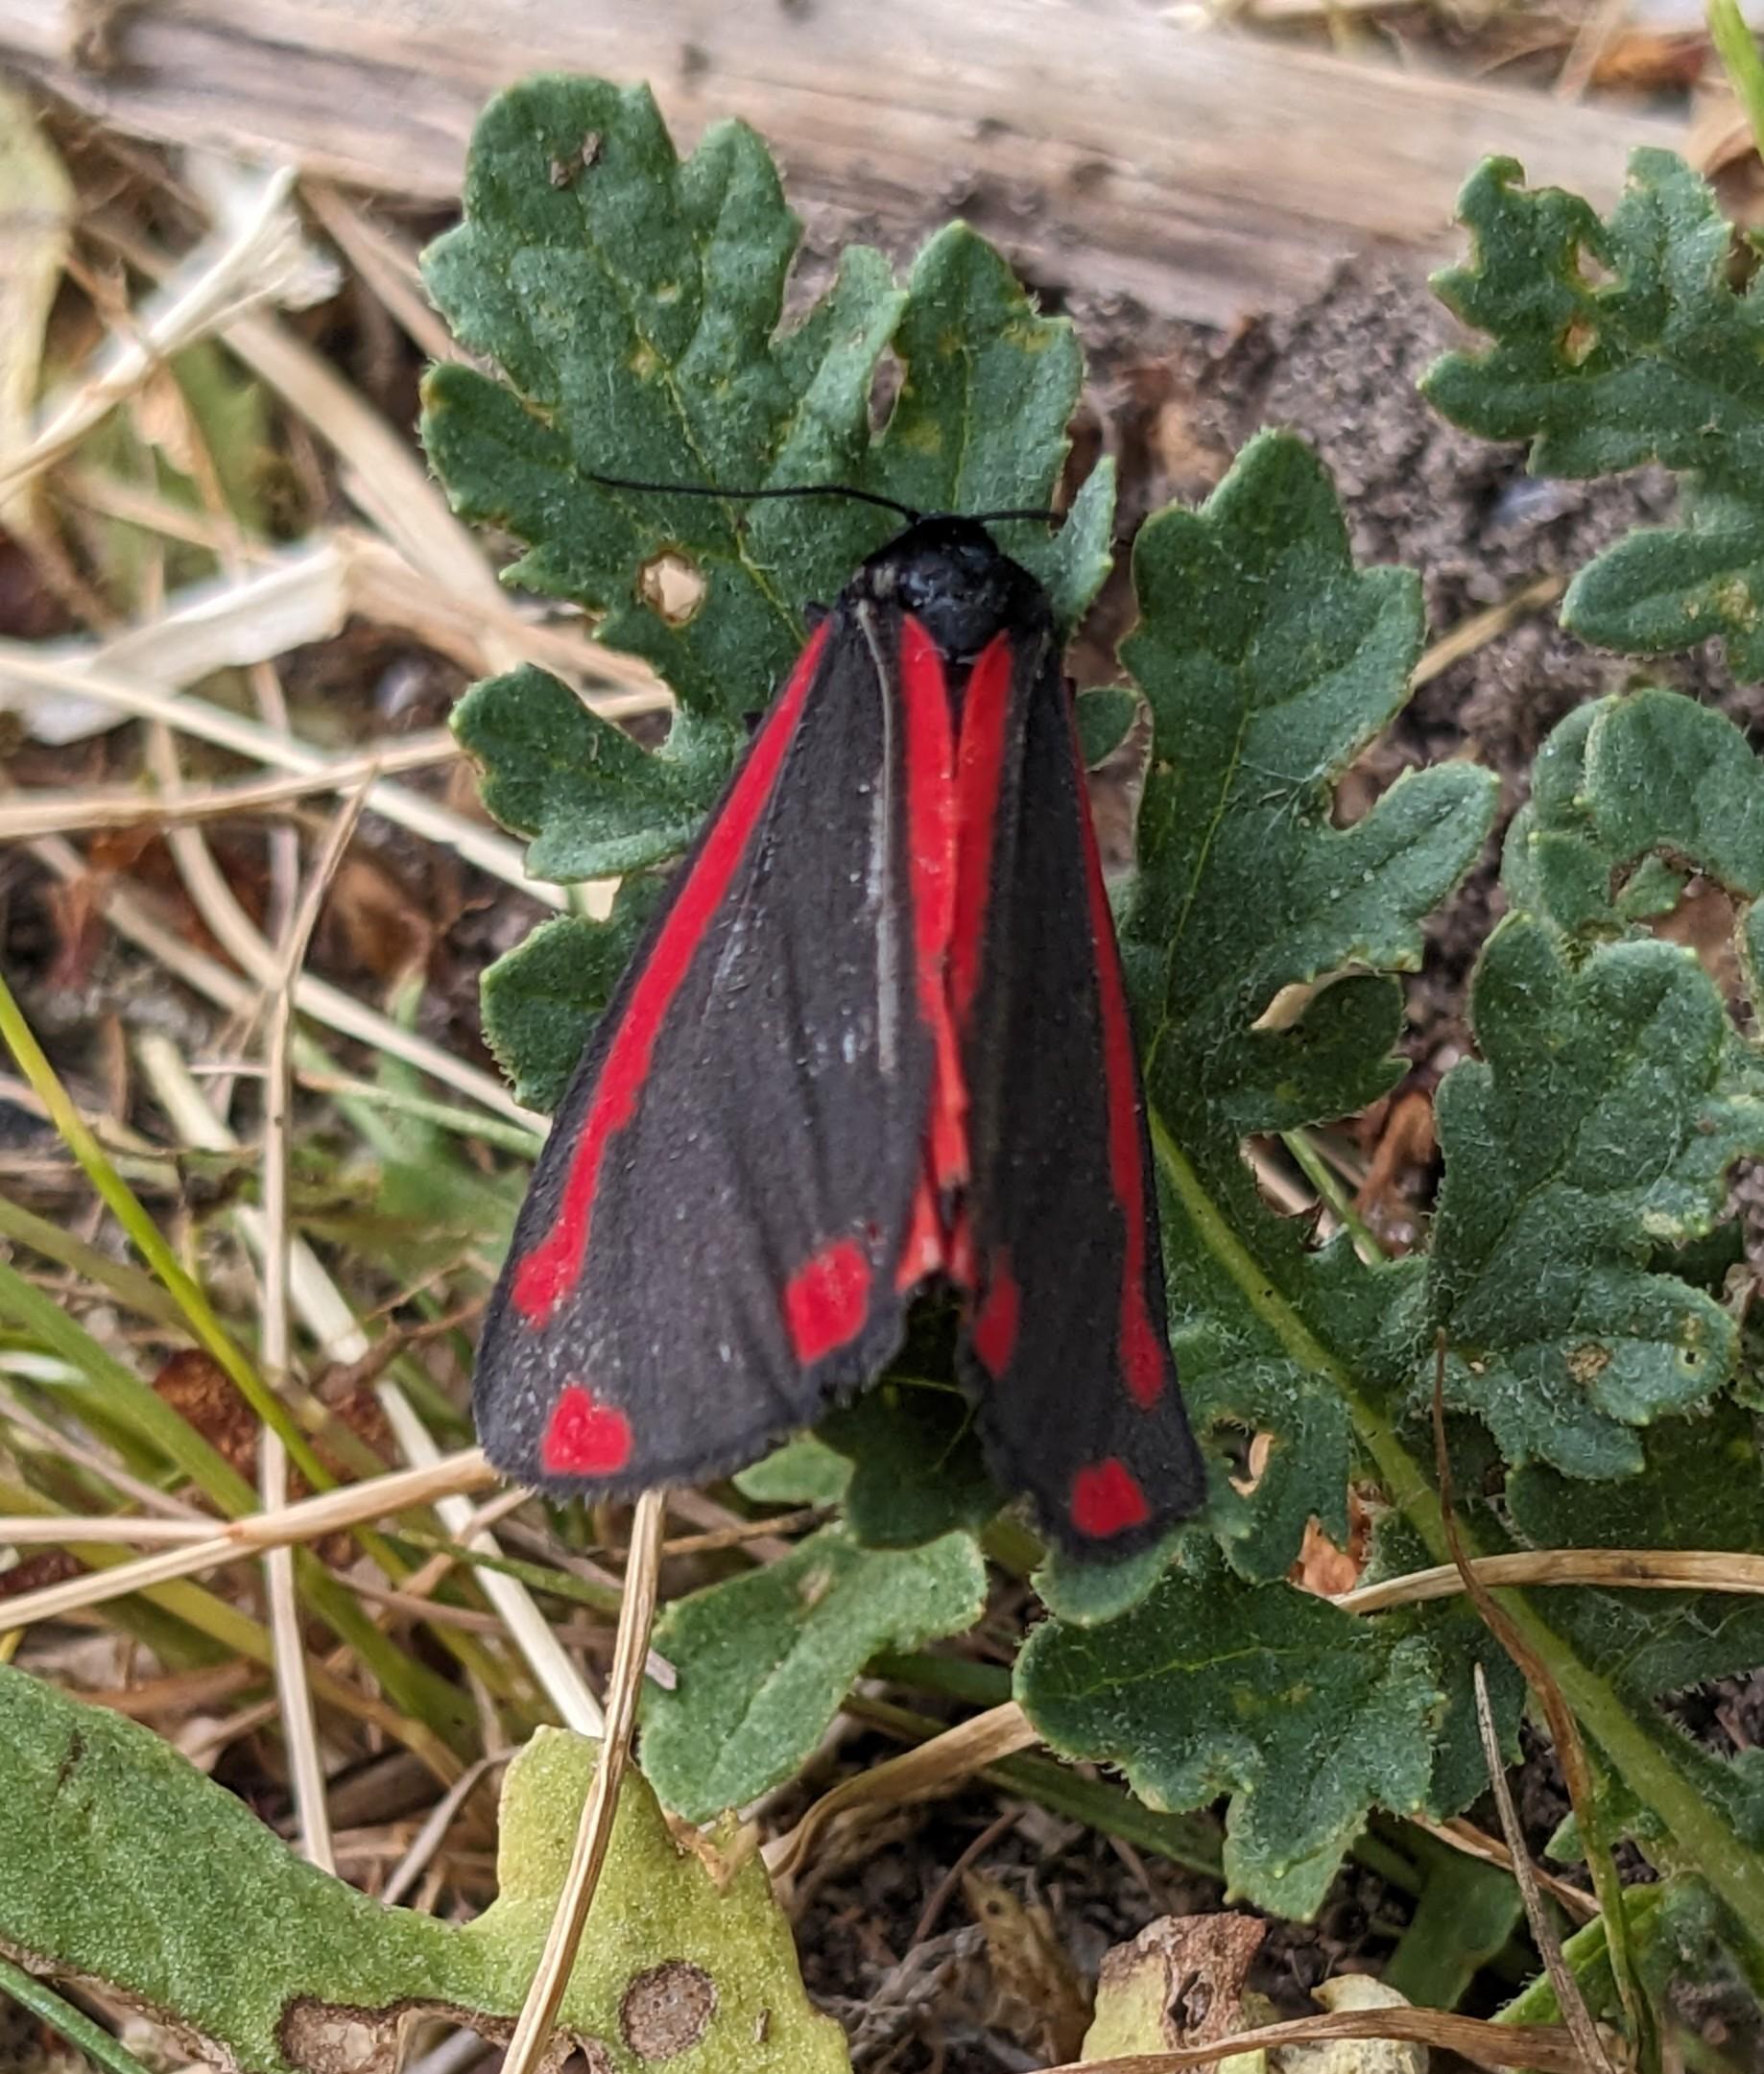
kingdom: Animalia
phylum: Arthropoda
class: Insecta
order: Lepidoptera
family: Erebidae
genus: Tyria
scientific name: Tyria jacobaeae
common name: Blodplet
